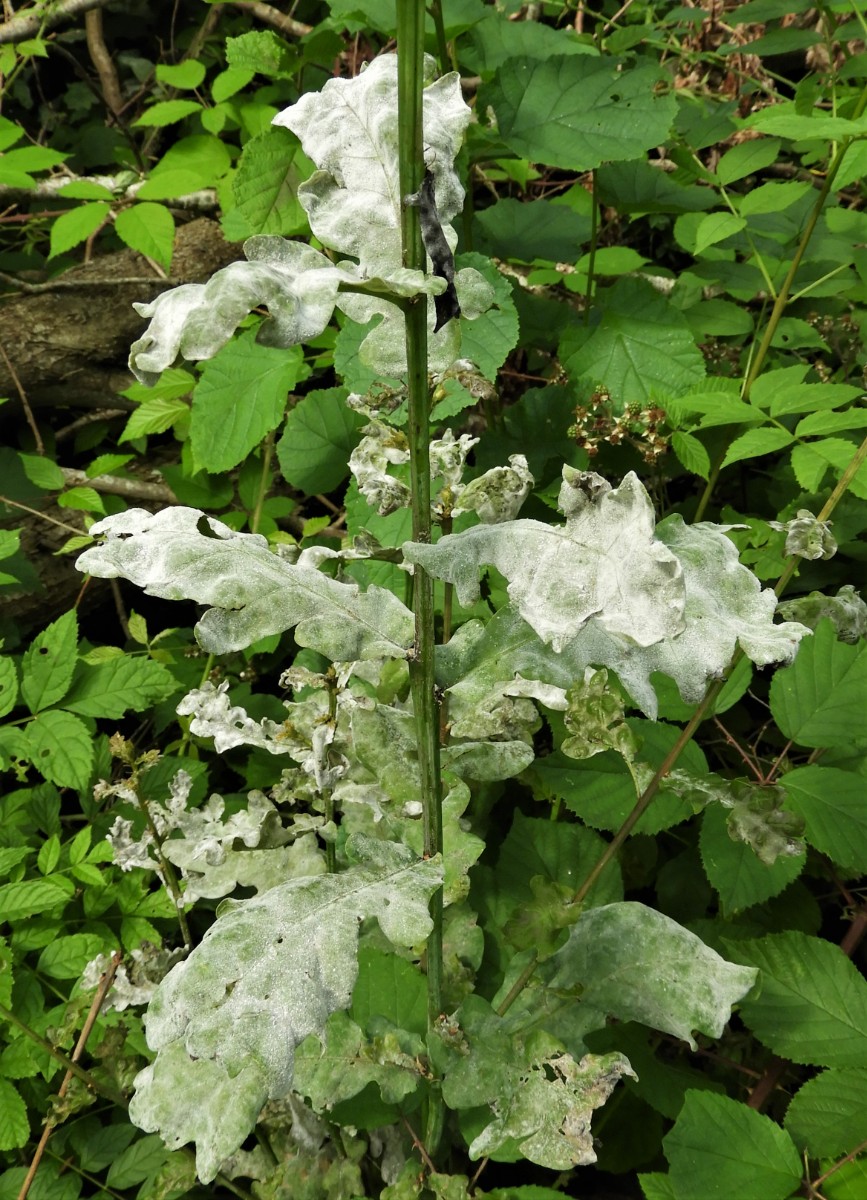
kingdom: Fungi
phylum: Ascomycota
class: Leotiomycetes
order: Helotiales
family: Erysiphaceae
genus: Erysiphe
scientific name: Erysiphe alphitoides
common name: ege-meldug
